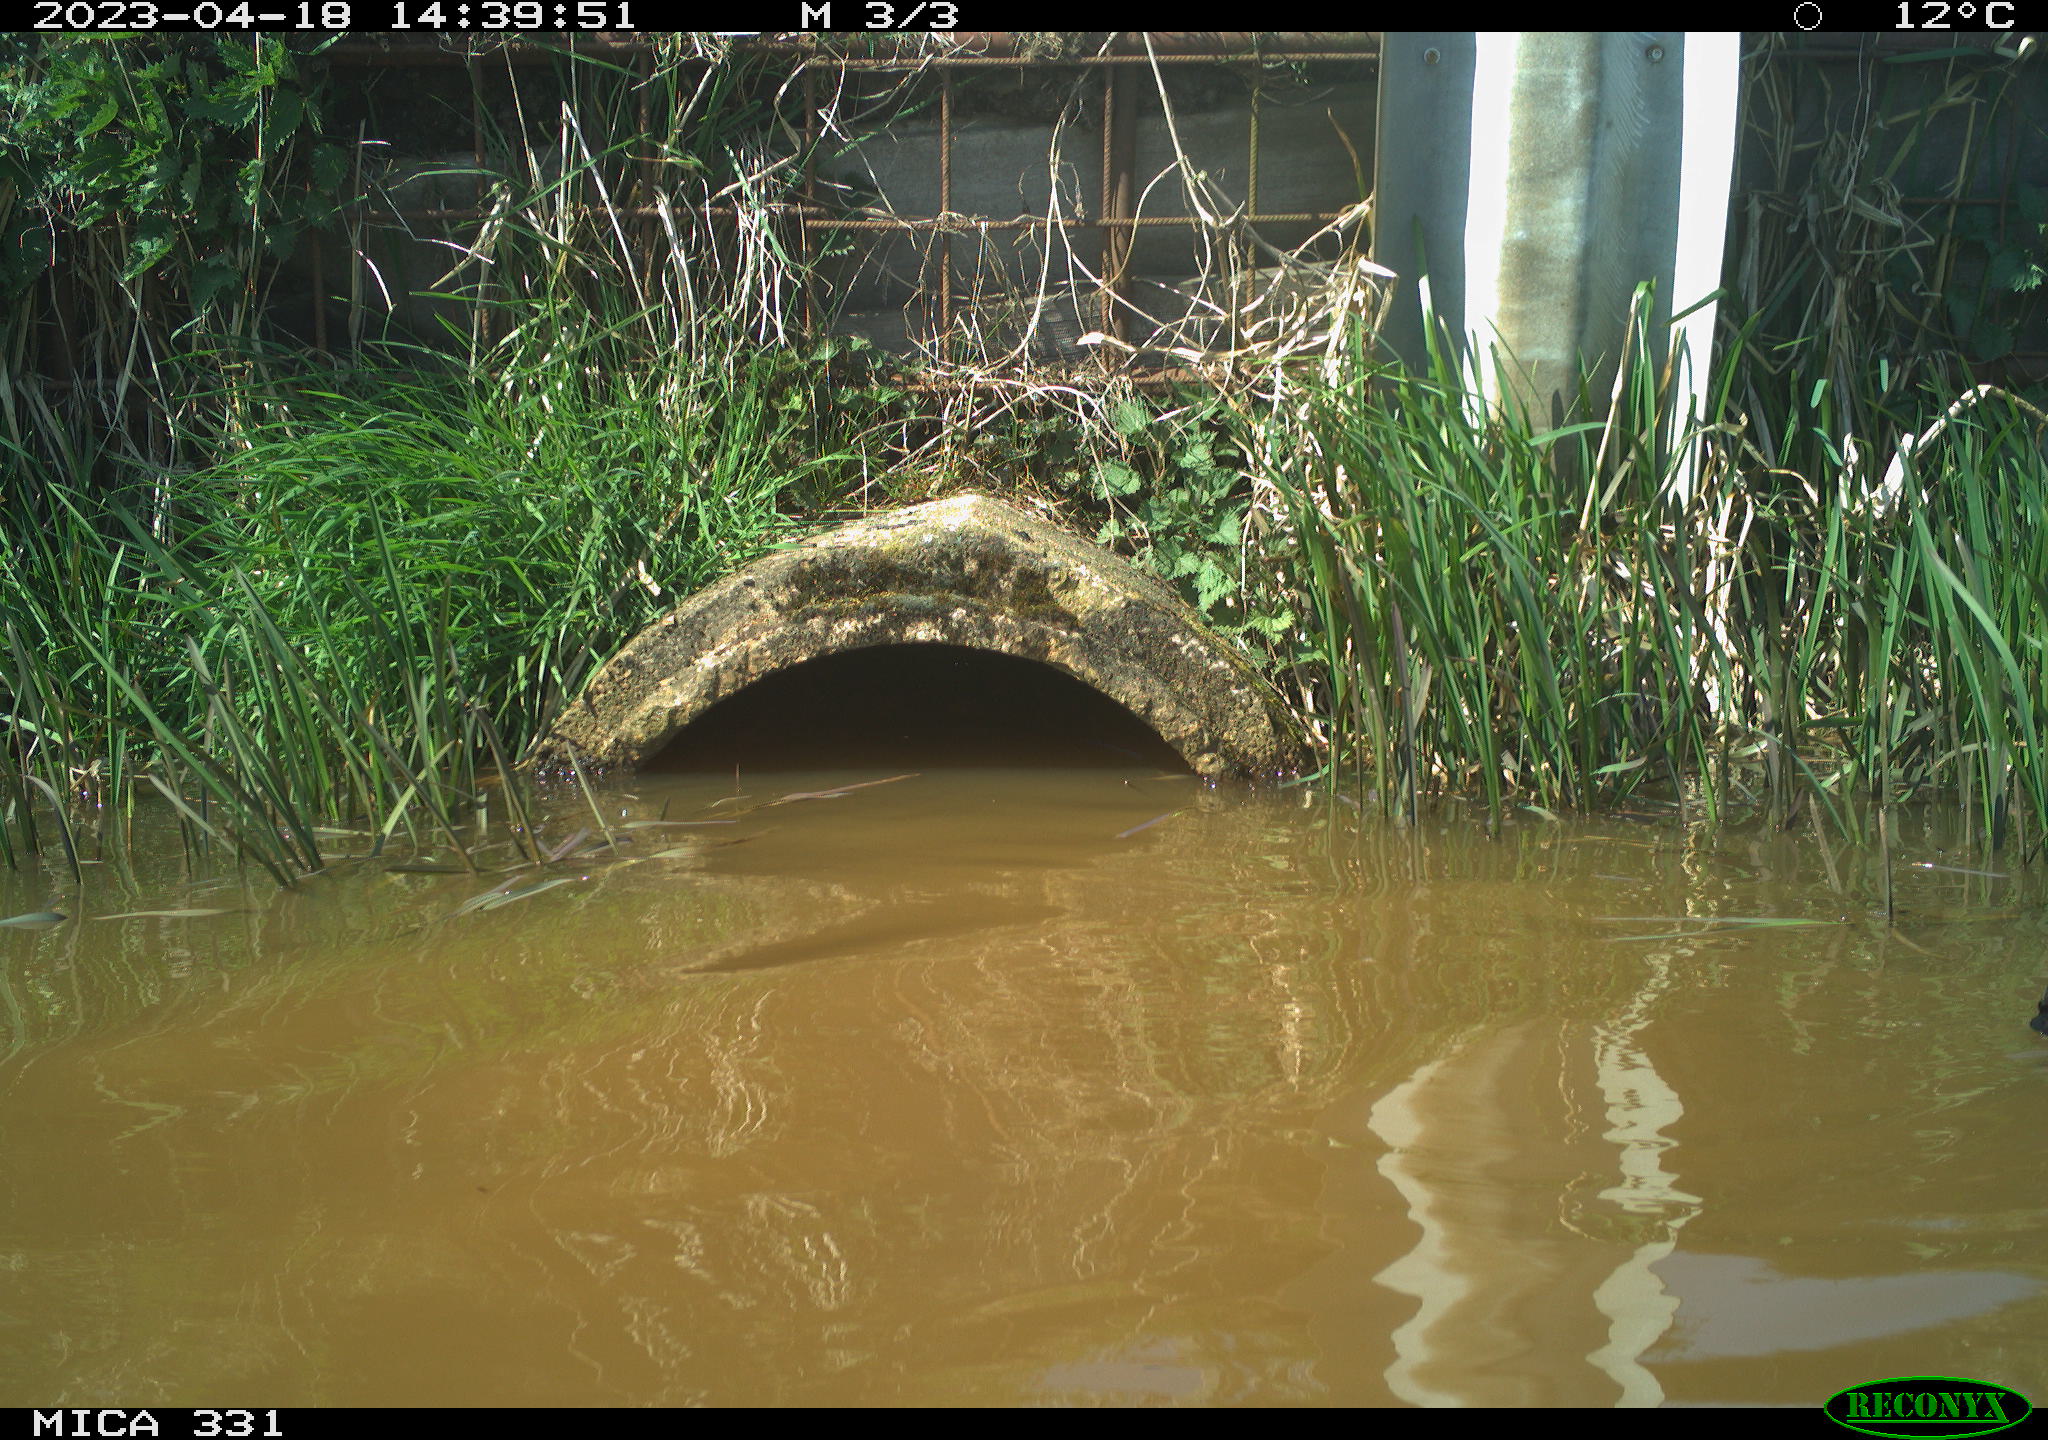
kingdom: Animalia
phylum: Chordata
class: Aves
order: Gruiformes
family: Rallidae
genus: Fulica
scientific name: Fulica atra
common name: Eurasian coot
